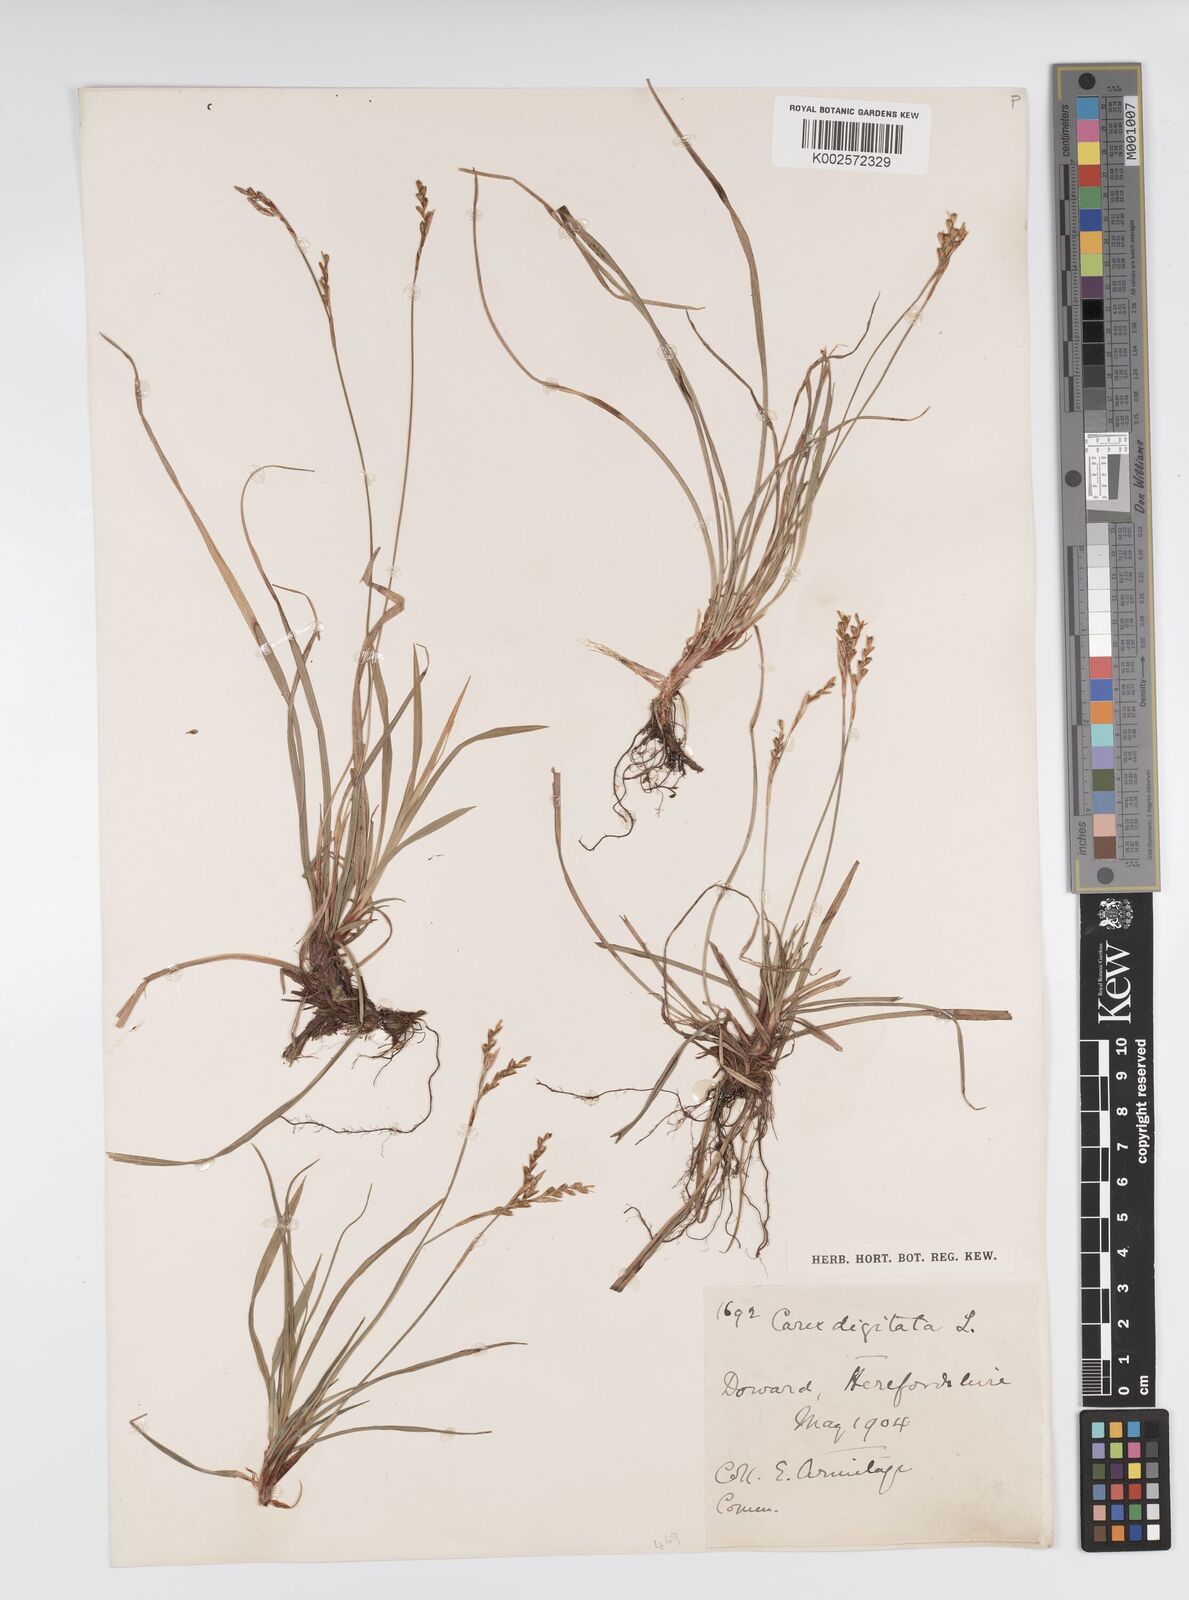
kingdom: Plantae
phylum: Tracheophyta
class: Liliopsida
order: Poales
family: Cyperaceae
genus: Carex
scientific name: Carex digitata
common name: Fingered sedge
